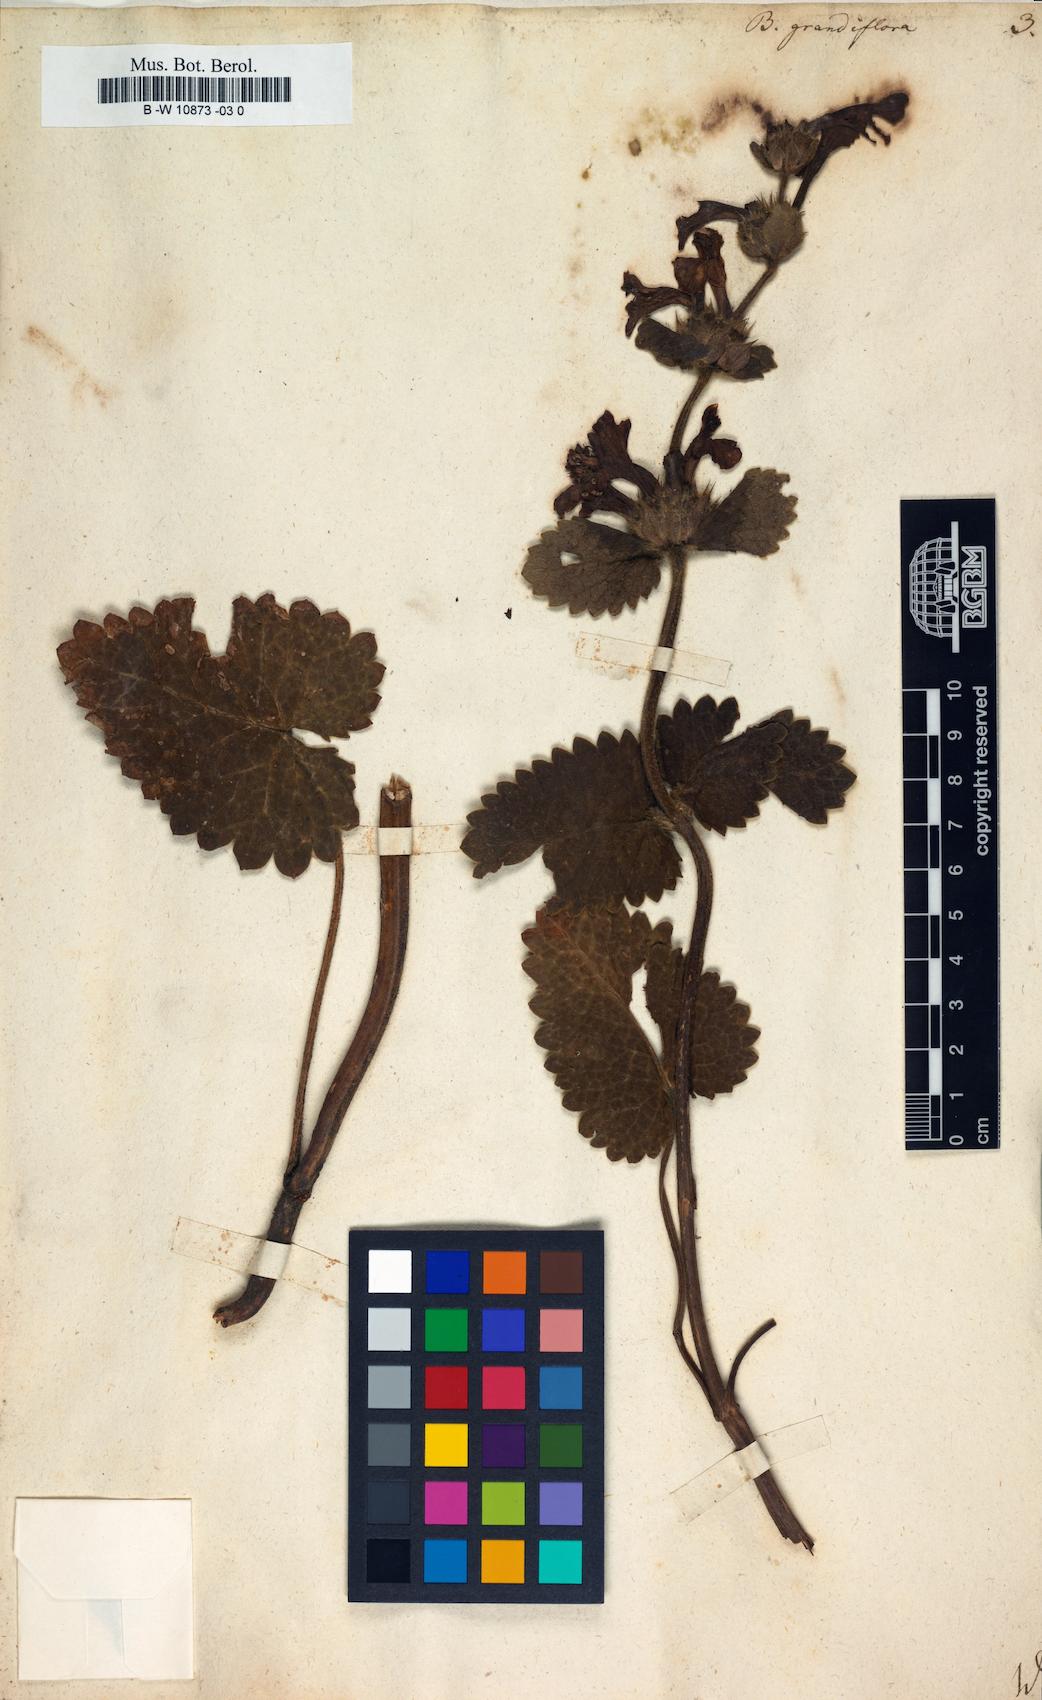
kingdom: Plantae
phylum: Tracheophyta
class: Magnoliopsida
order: Lamiales
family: Lamiaceae
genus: Betonica
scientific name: Betonica
